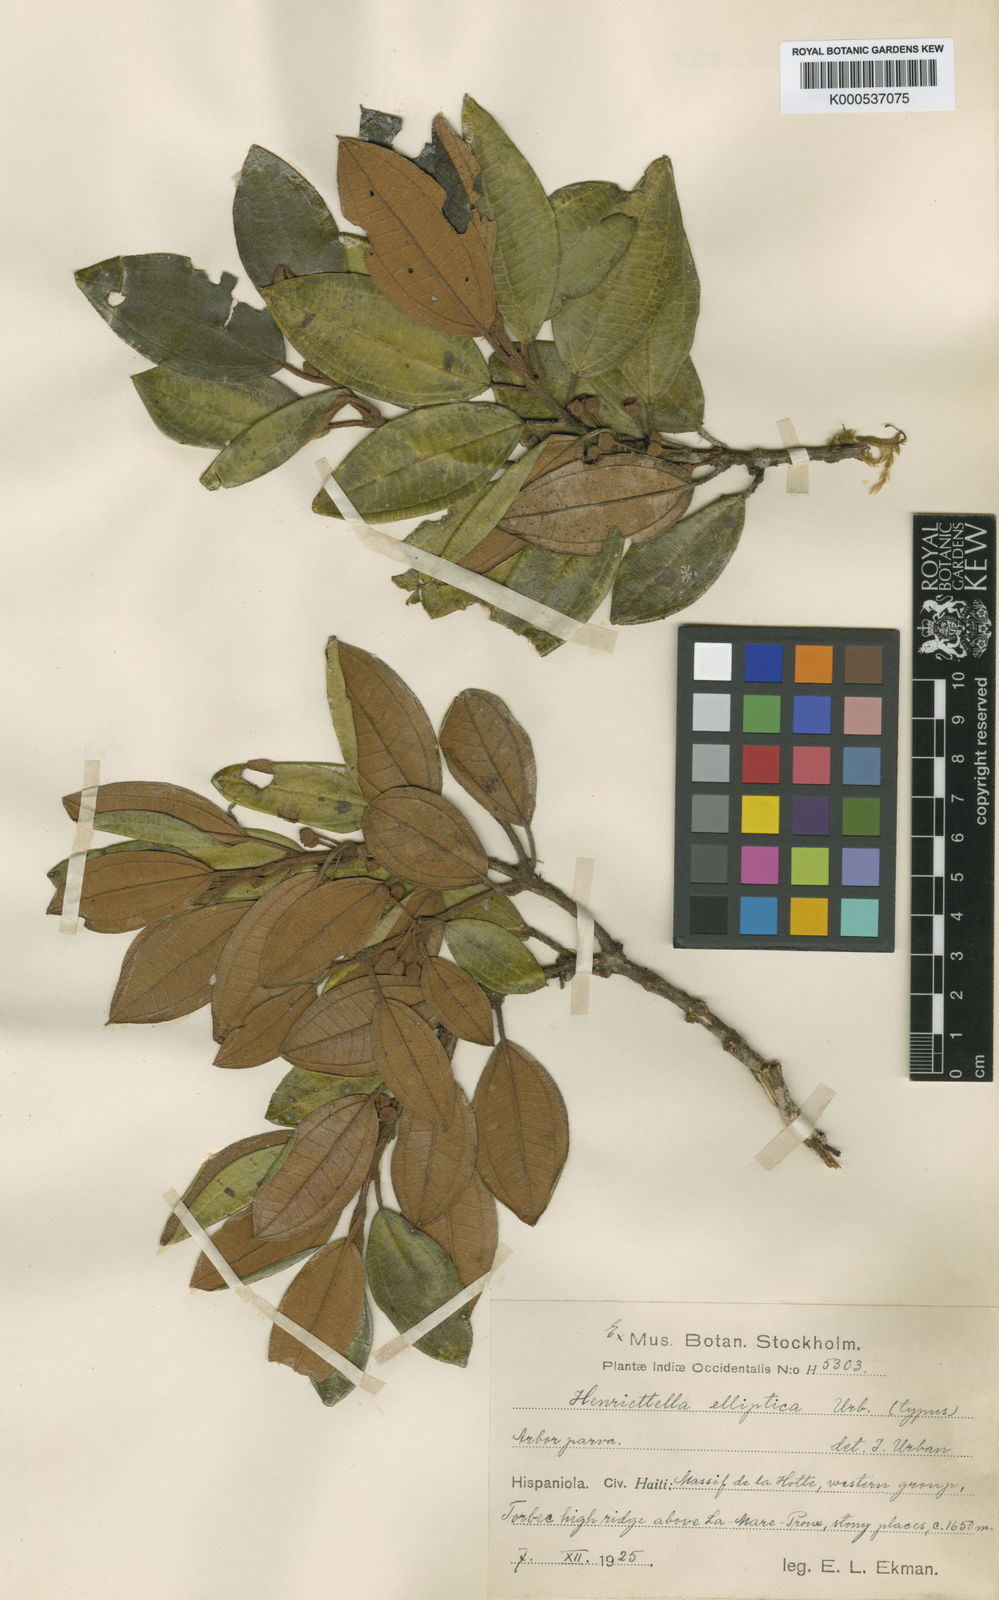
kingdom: Plantae
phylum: Tracheophyta
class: Magnoliopsida
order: Myrtales
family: Melastomataceae
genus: Henriettea
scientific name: Henriettea barkeri
